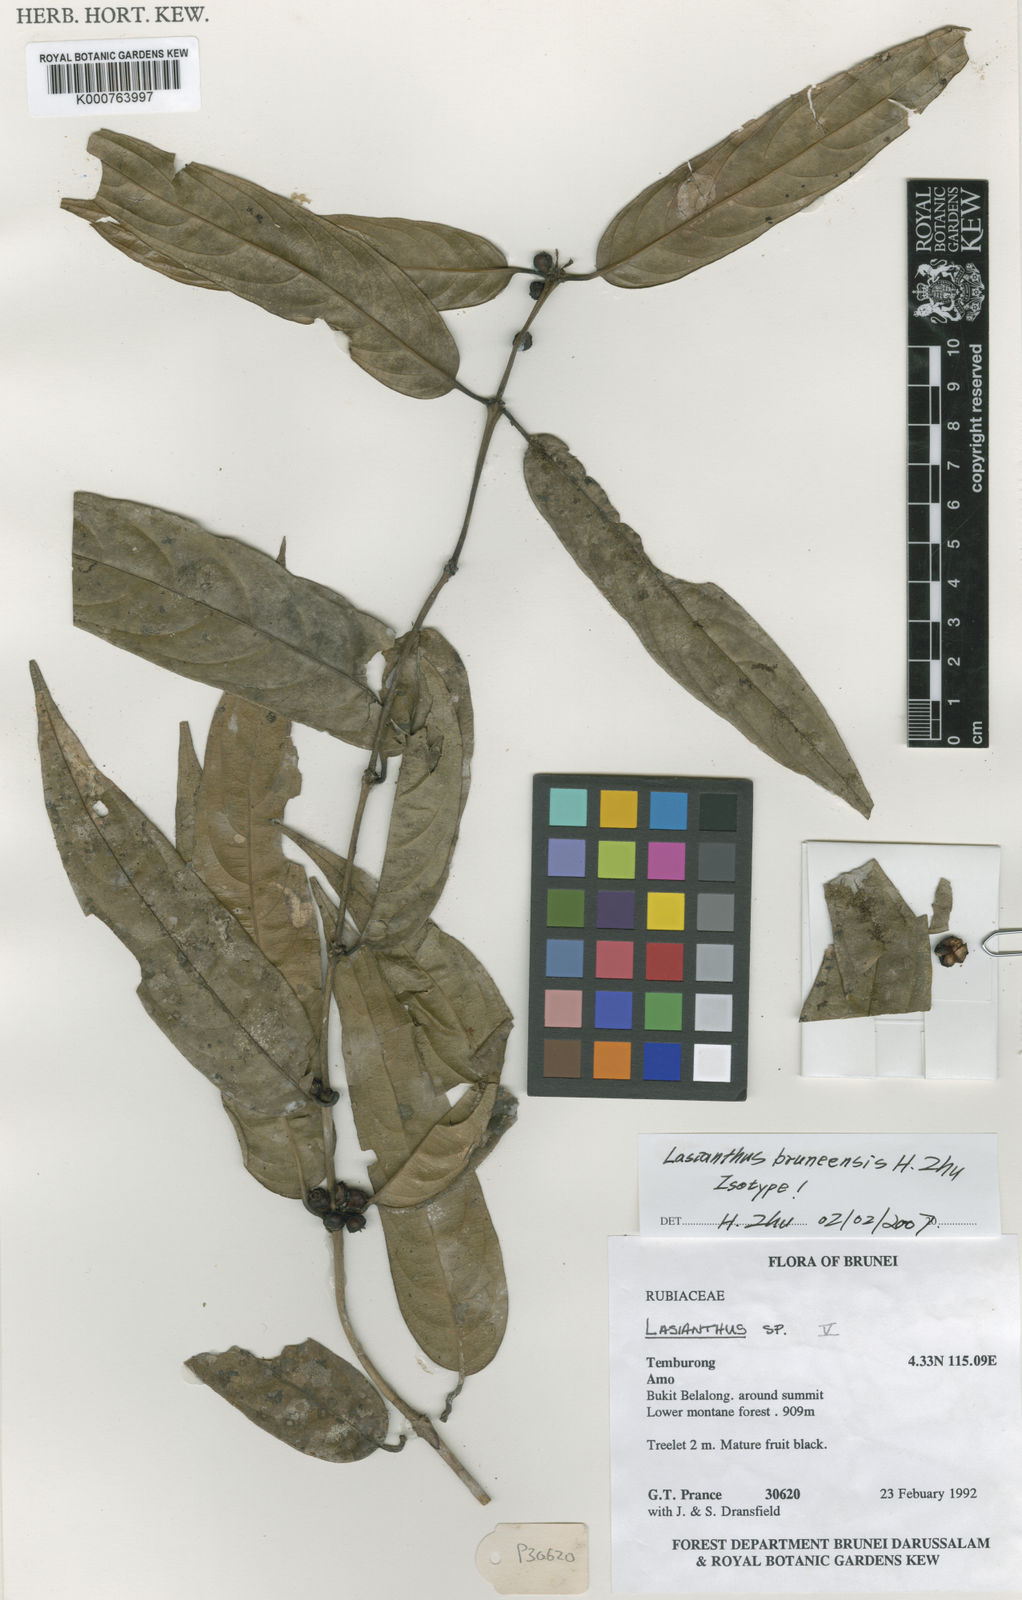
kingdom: Plantae
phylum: Tracheophyta
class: Magnoliopsida
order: Gentianales
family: Rubiaceae
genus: Lasianthus
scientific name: Lasianthus bruneensis
